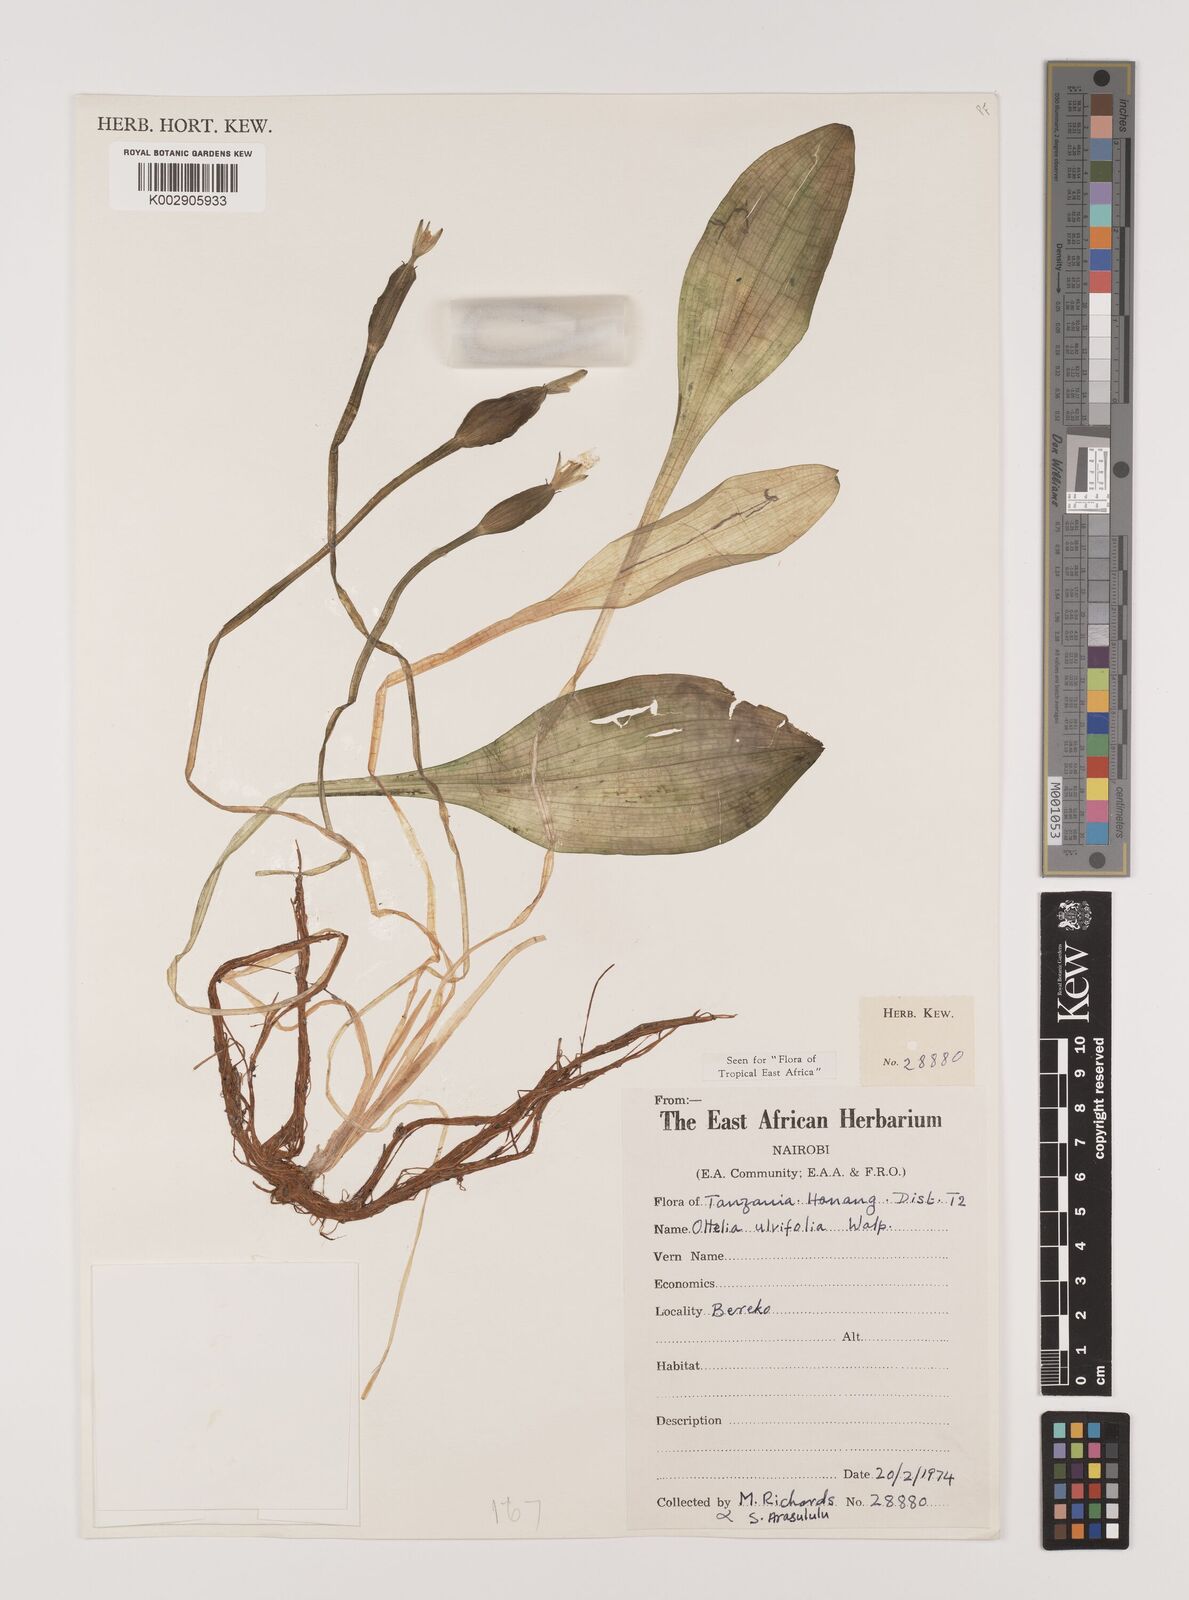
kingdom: Plantae
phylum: Tracheophyta
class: Liliopsida
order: Alismatales
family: Hydrocharitaceae
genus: Ottelia
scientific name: Ottelia ulvifolia
